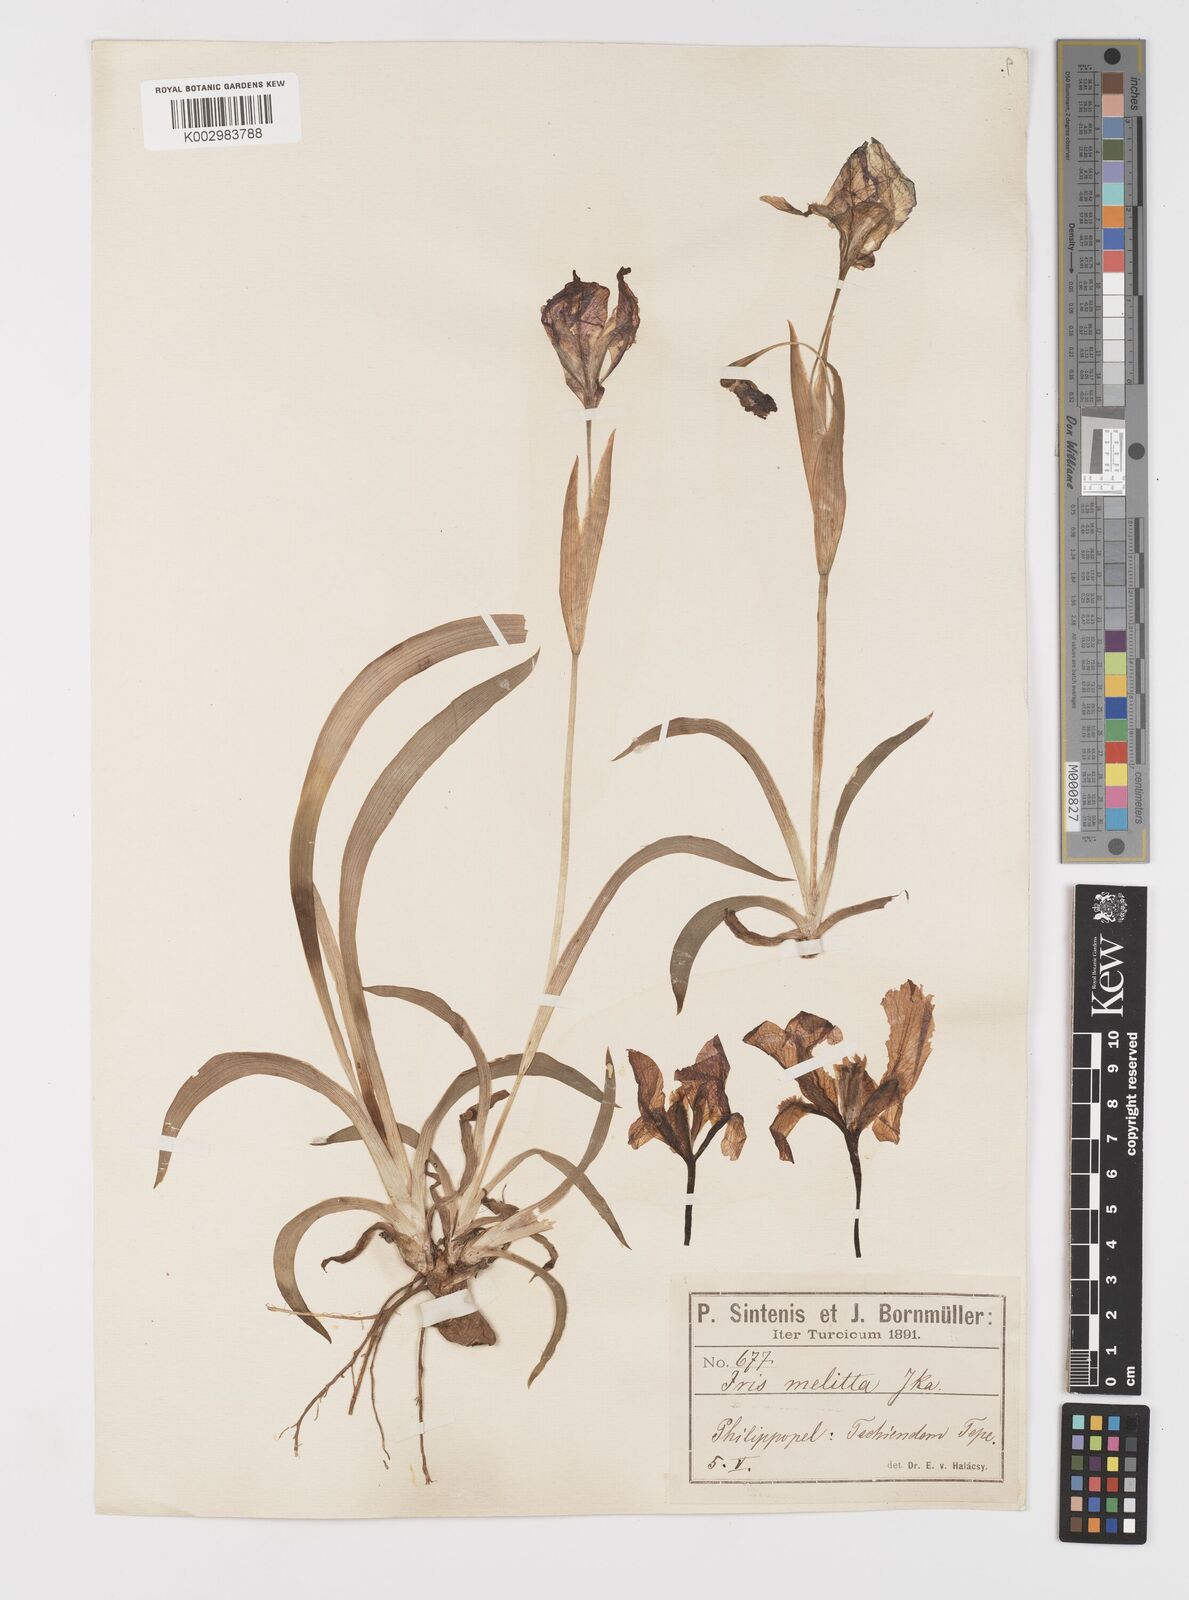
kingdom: Plantae
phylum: Tracheophyta
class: Liliopsida
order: Asparagales
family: Iridaceae
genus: Iris
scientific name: Iris suaveolens
